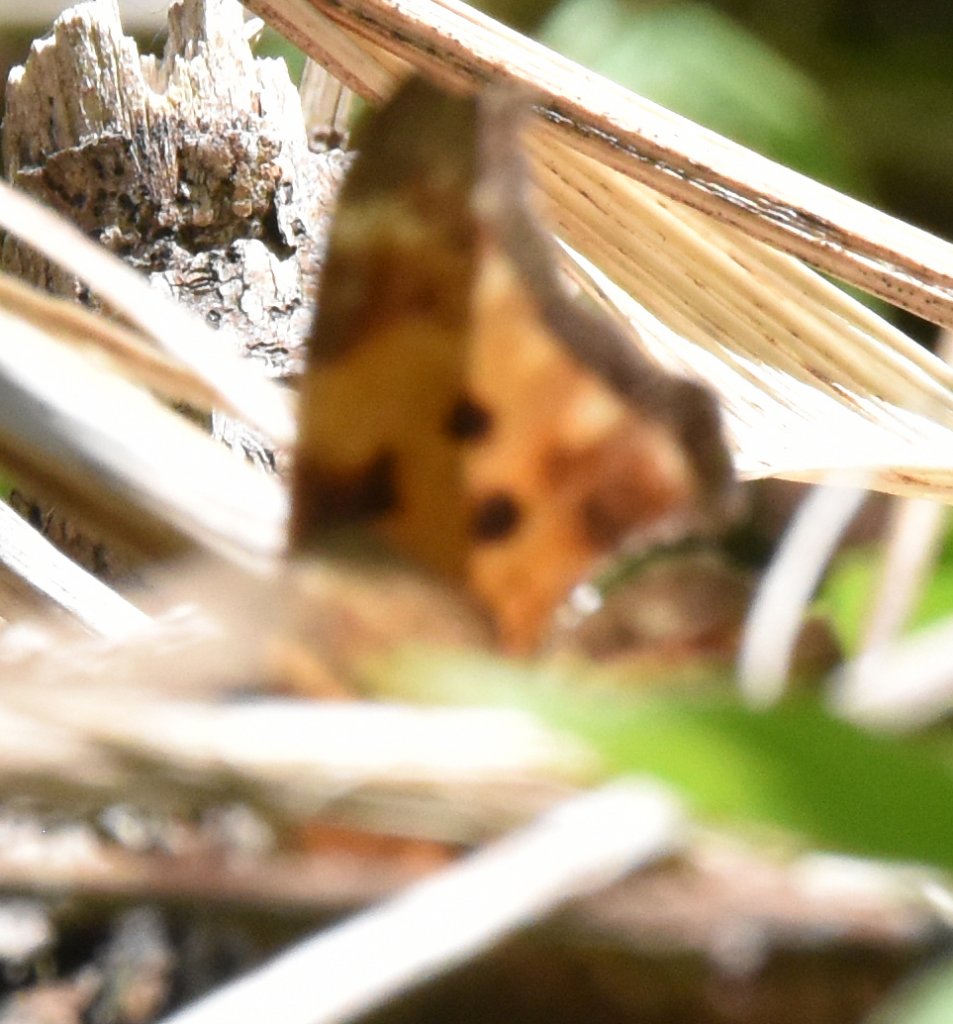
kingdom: Animalia
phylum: Arthropoda
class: Insecta
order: Lepidoptera
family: Nymphalidae
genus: Polygonia
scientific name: Polygonia comma
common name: Eastern Comma
